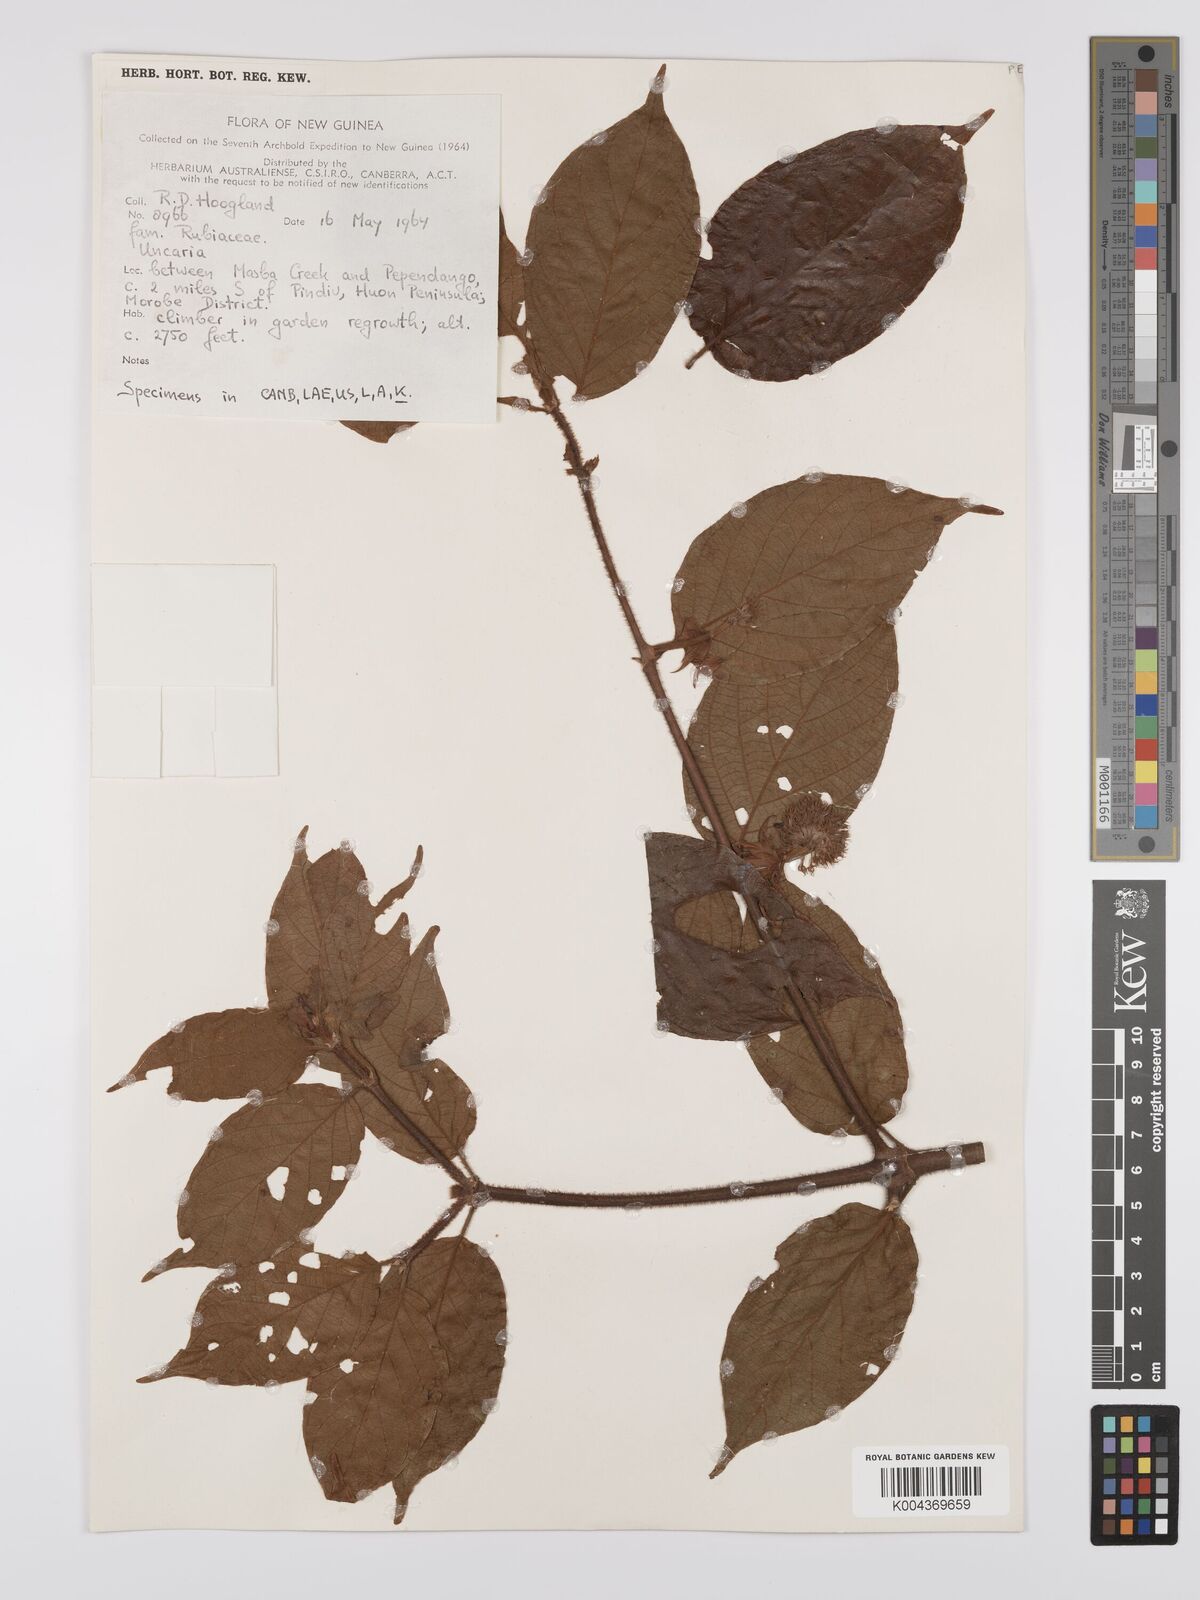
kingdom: Plantae
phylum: Tracheophyta
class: Magnoliopsida
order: Gentianales
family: Rubiaceae
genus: Uncaria
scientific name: Uncaria lanosa
